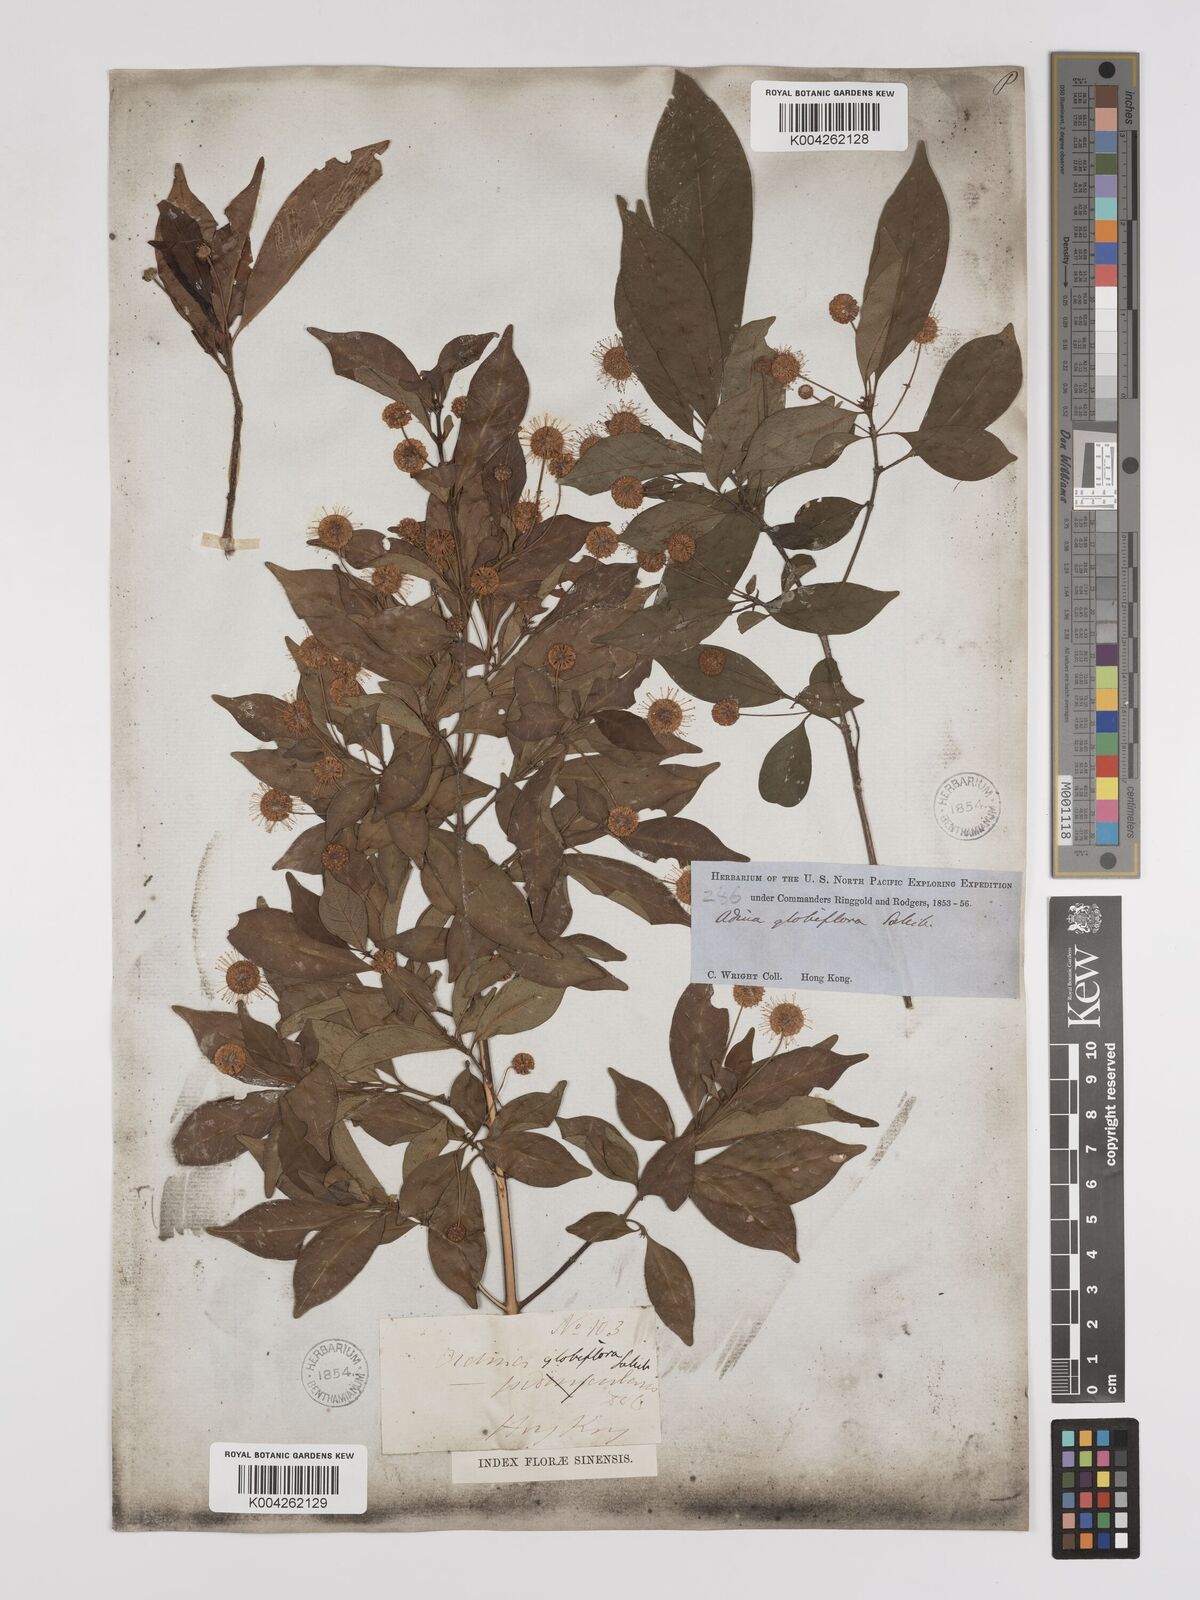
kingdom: Plantae
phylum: Tracheophyta
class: Magnoliopsida
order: Gentianales
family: Rubiaceae
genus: Adina
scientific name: Adina pilulifera
